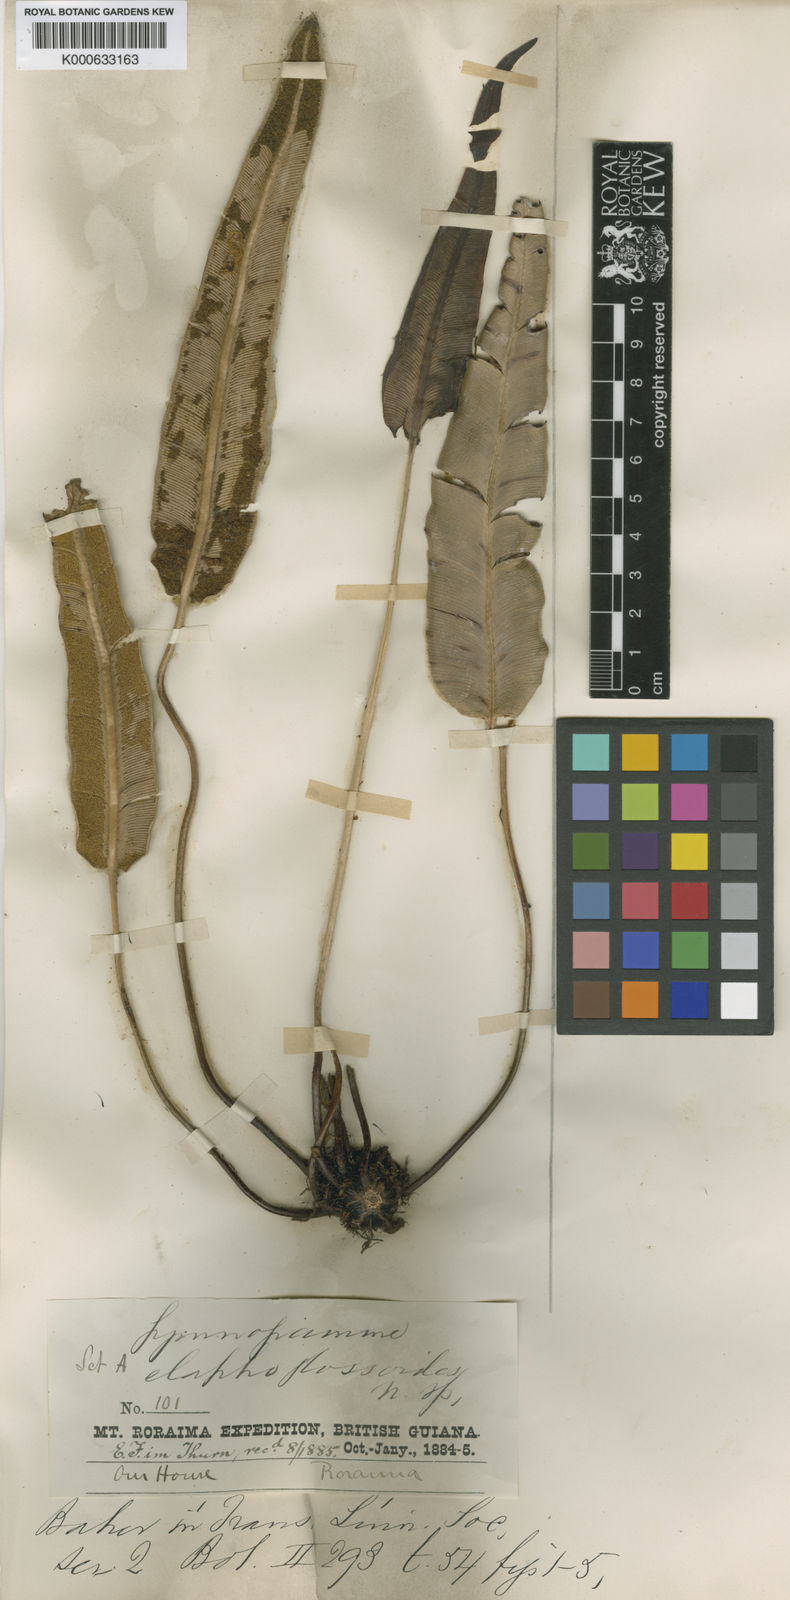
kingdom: Plantae
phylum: Tracheophyta
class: Polypodiopsida
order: Polypodiales
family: Pteridaceae
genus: Pterozonium
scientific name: Pterozonium elaphoglossoides
